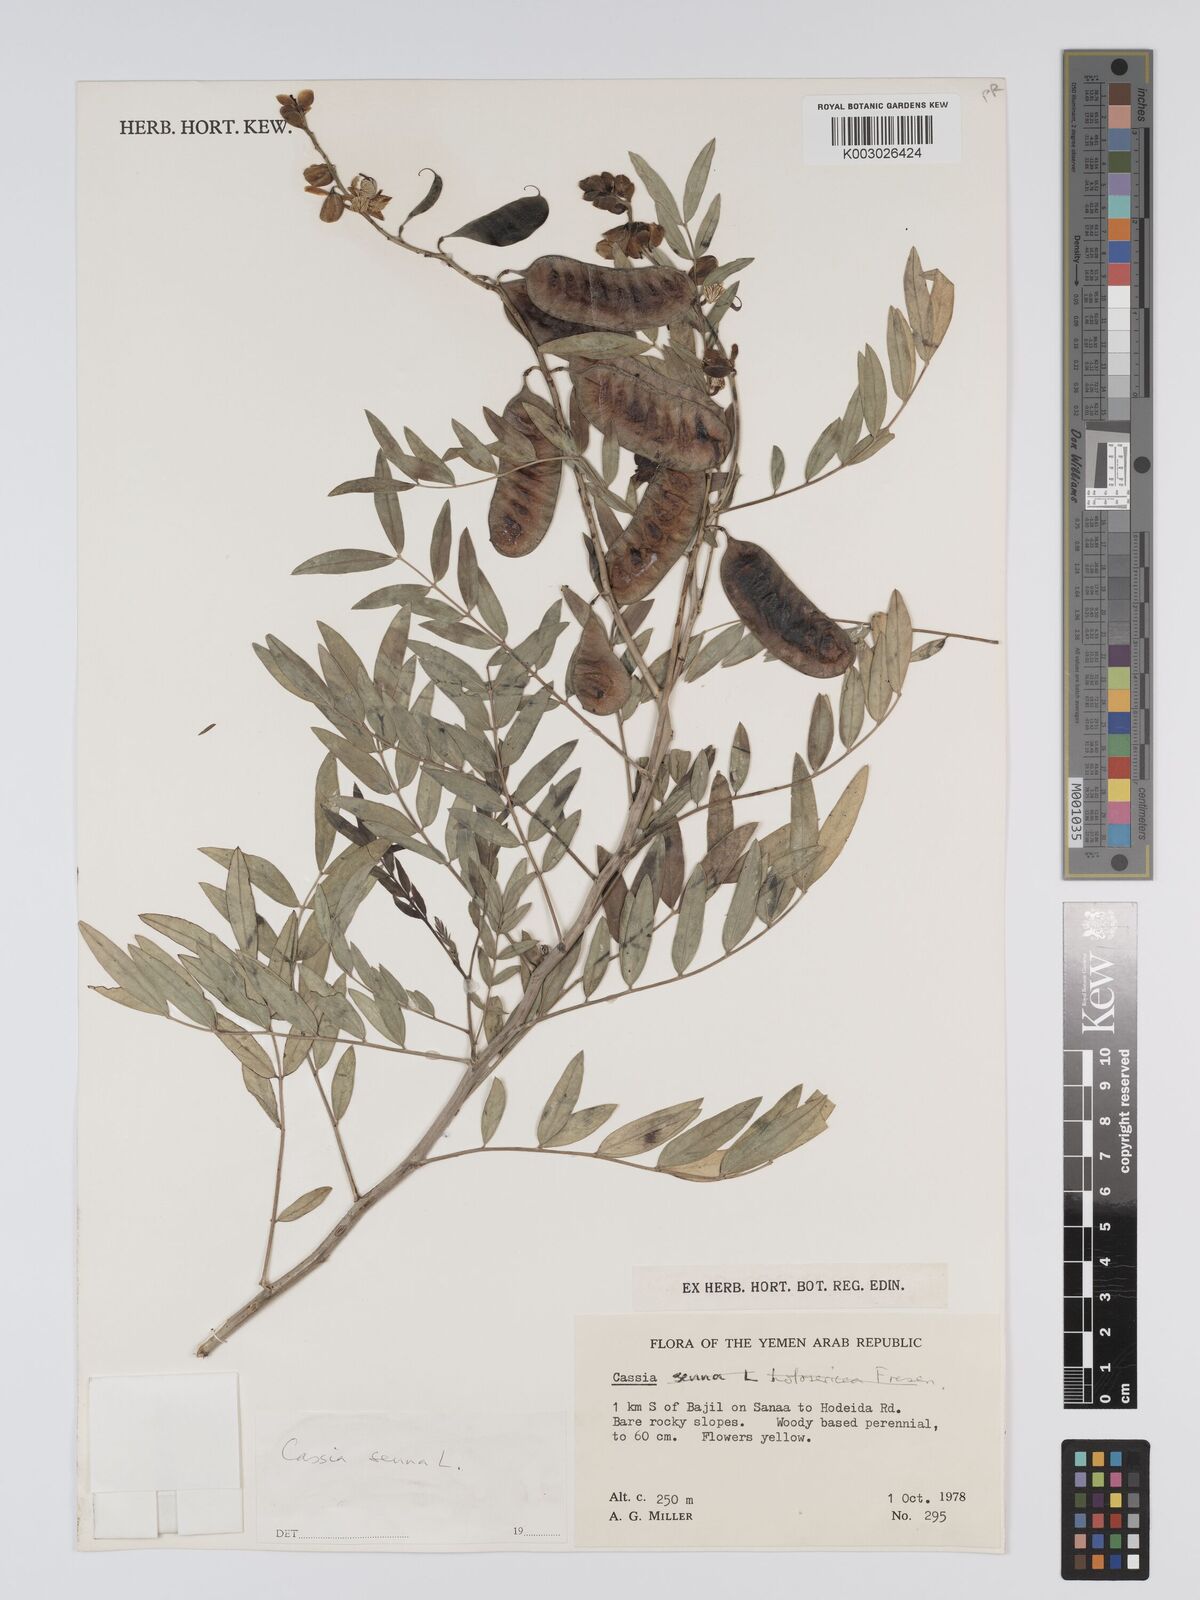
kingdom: Plantae
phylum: Tracheophyta
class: Magnoliopsida
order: Fabales
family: Fabaceae
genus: Senna
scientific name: Senna alexandrina
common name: True senna
